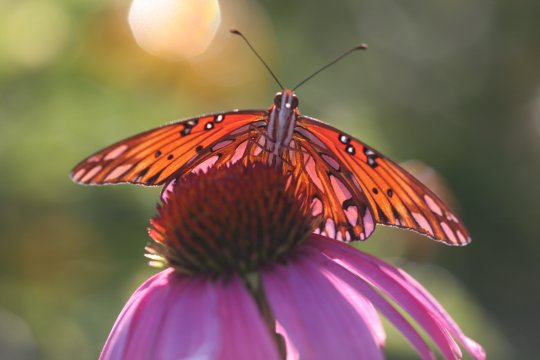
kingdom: Animalia
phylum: Arthropoda
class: Insecta
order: Lepidoptera
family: Nymphalidae
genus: Dione
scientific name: Dione vanillae
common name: Gulf Fritillary
